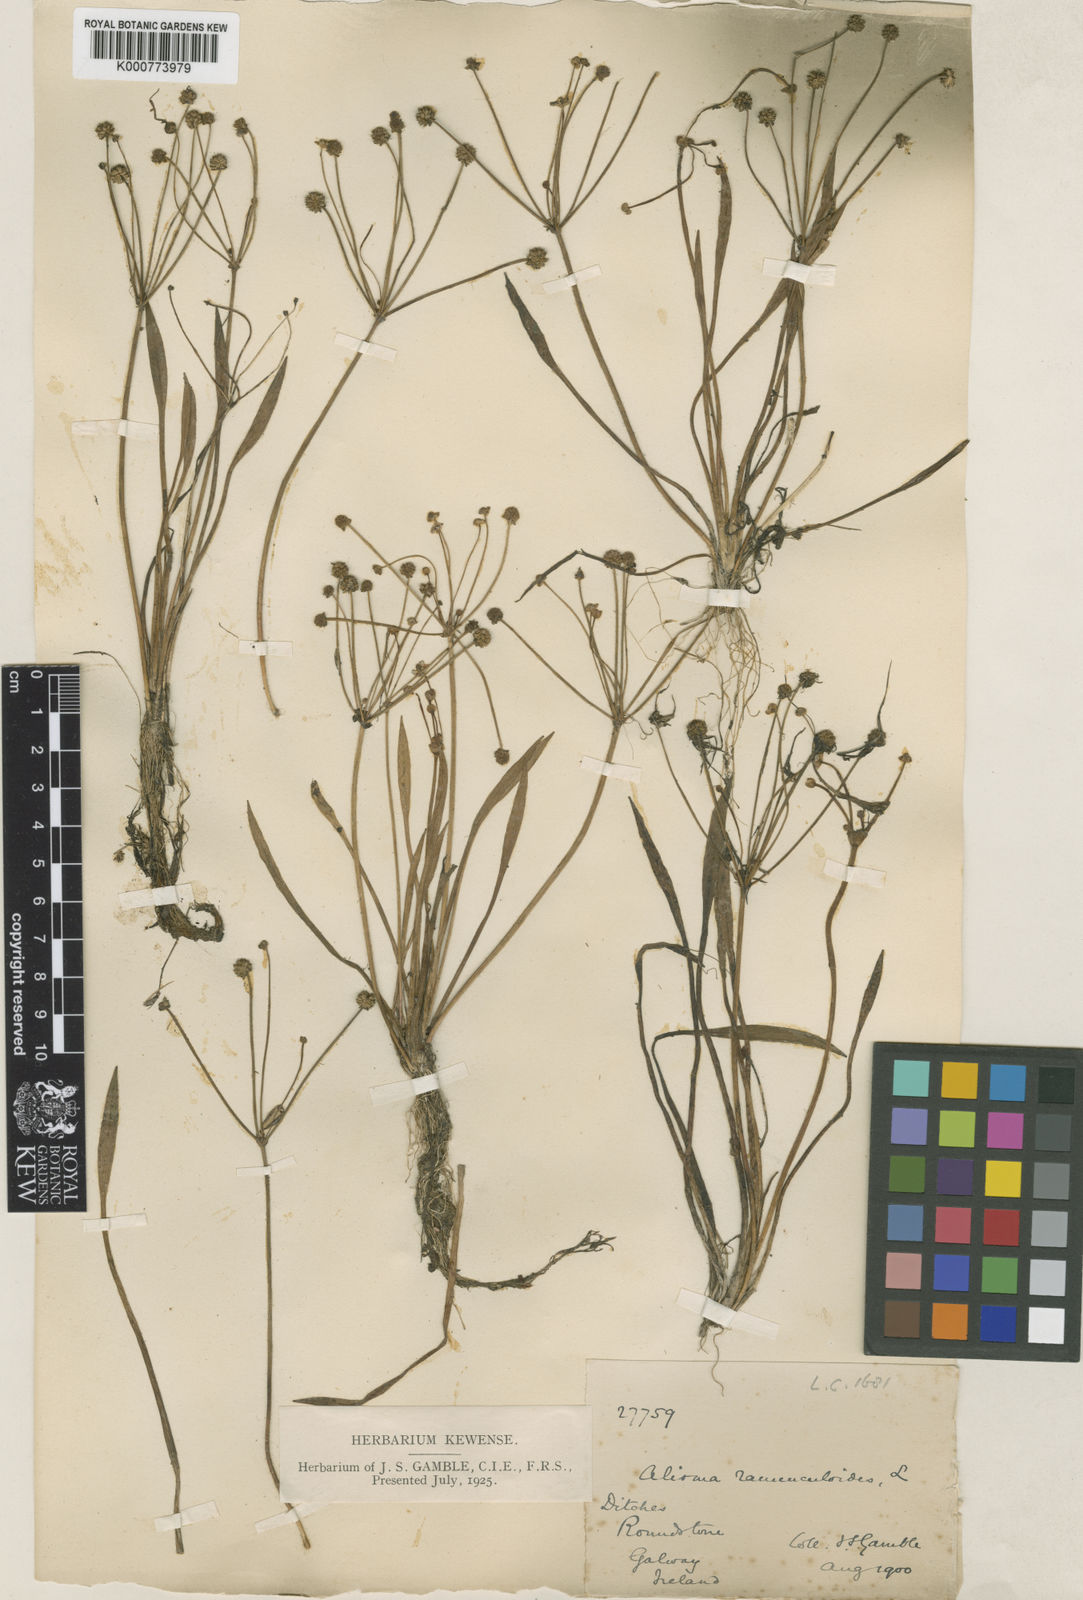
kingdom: Plantae
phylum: Tracheophyta
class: Liliopsida
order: Alismatales
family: Alismataceae
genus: Baldellia
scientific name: Baldellia ranunculoides
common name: Lesser water-plantain
